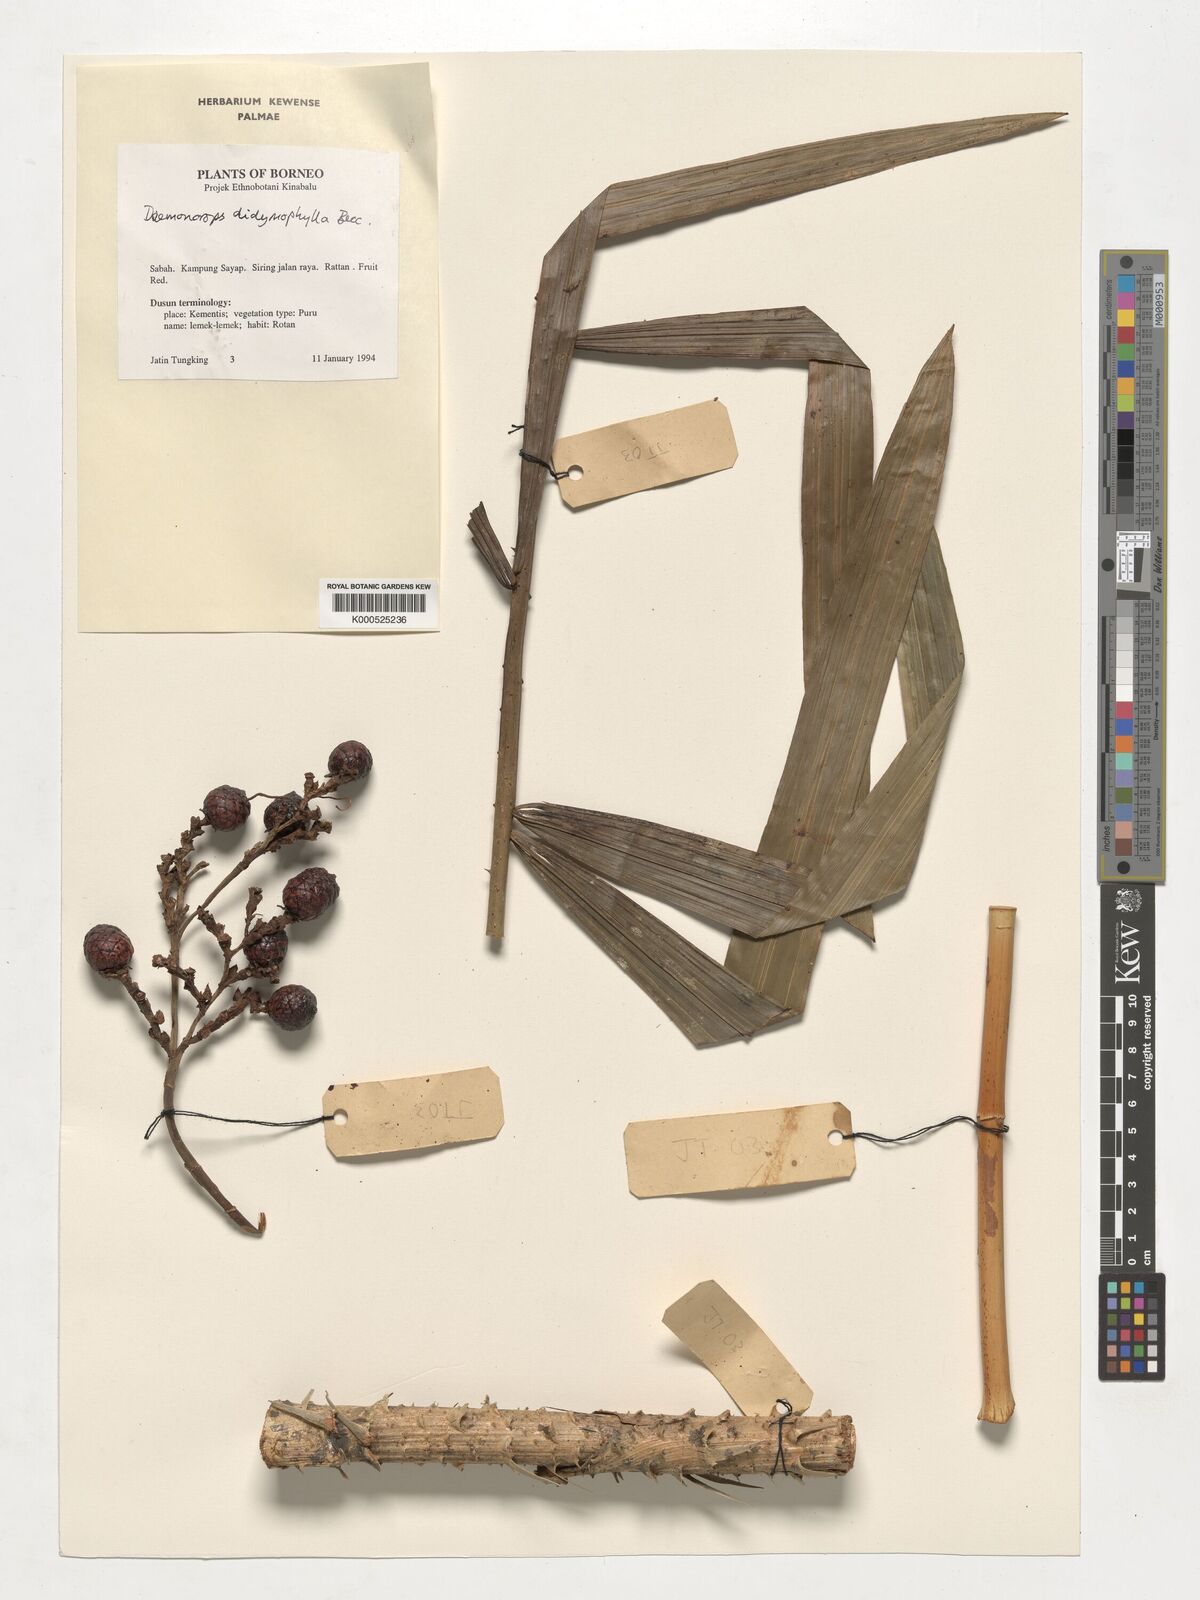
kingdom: Plantae
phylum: Tracheophyta
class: Liliopsida
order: Arecales
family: Arecaceae
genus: Calamus
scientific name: Calamus gracilipes
